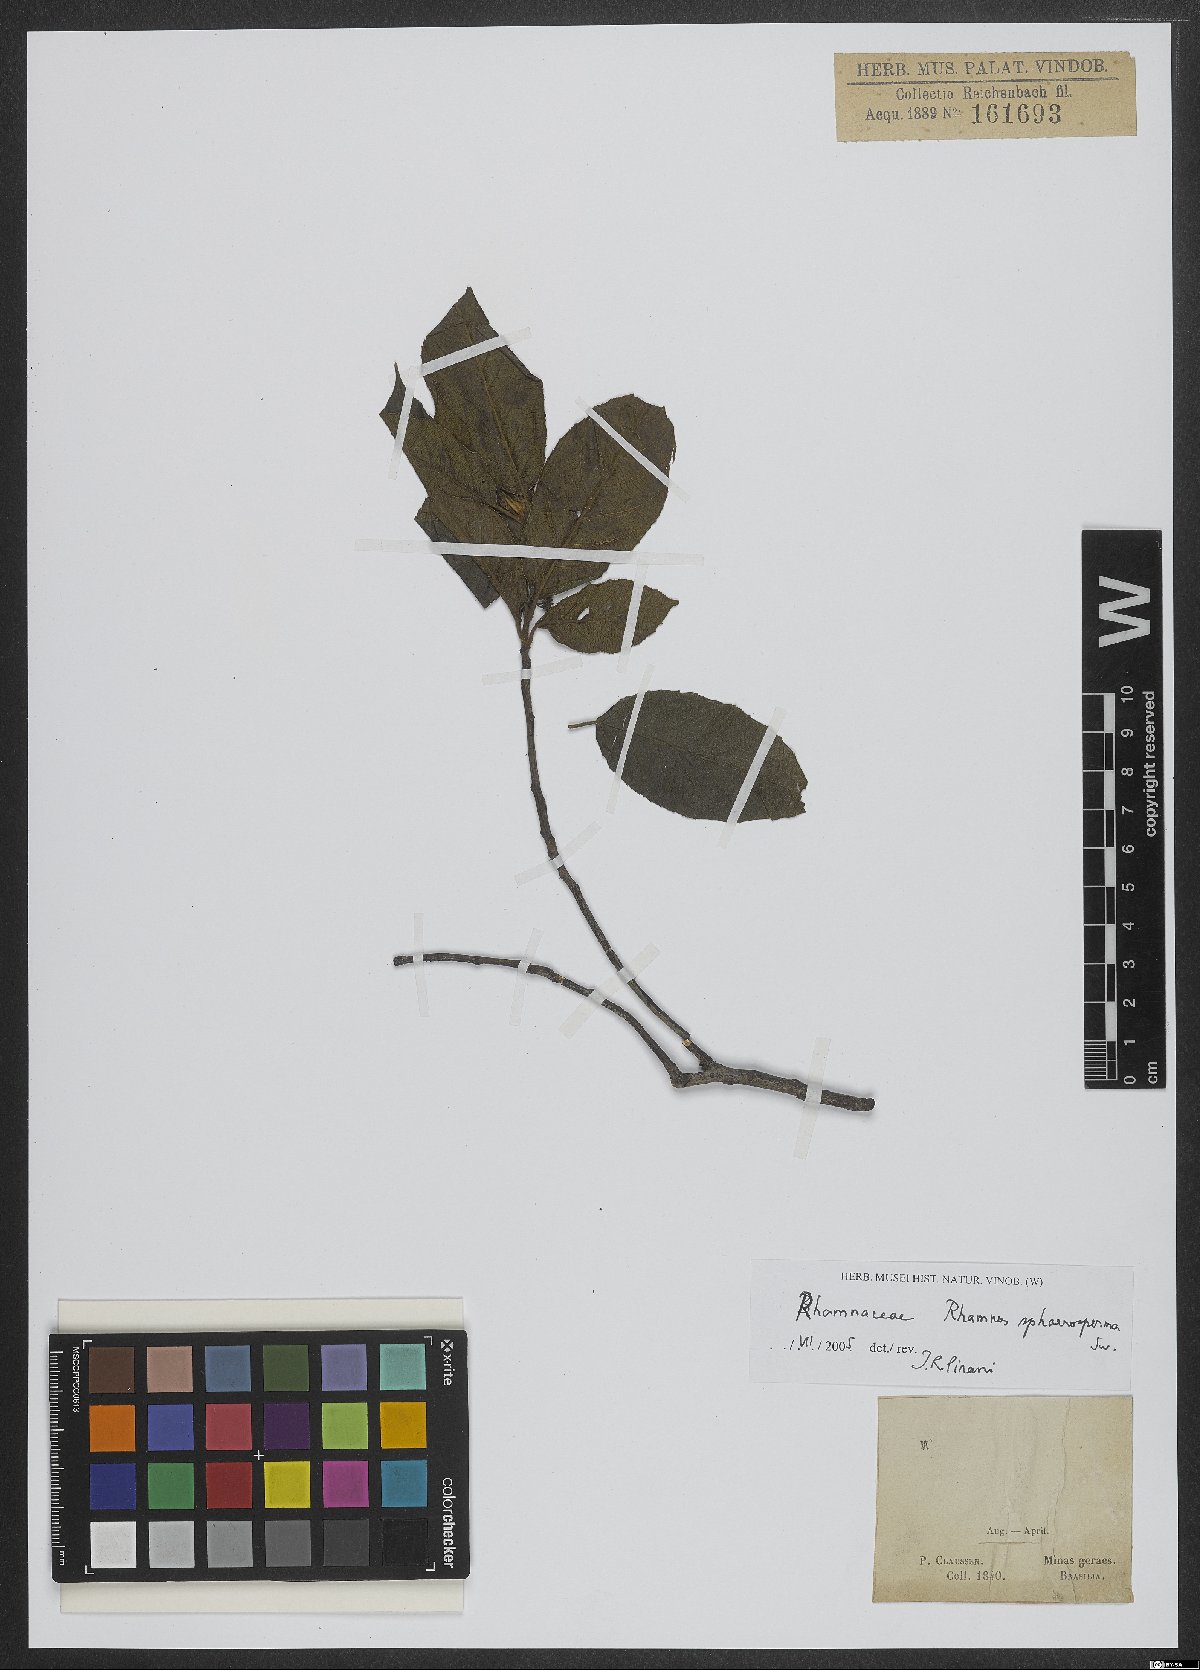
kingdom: Plantae
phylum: Tracheophyta
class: Magnoliopsida
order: Rosales
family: Rhamnaceae
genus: Frangula
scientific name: Frangula sphaerosperma
